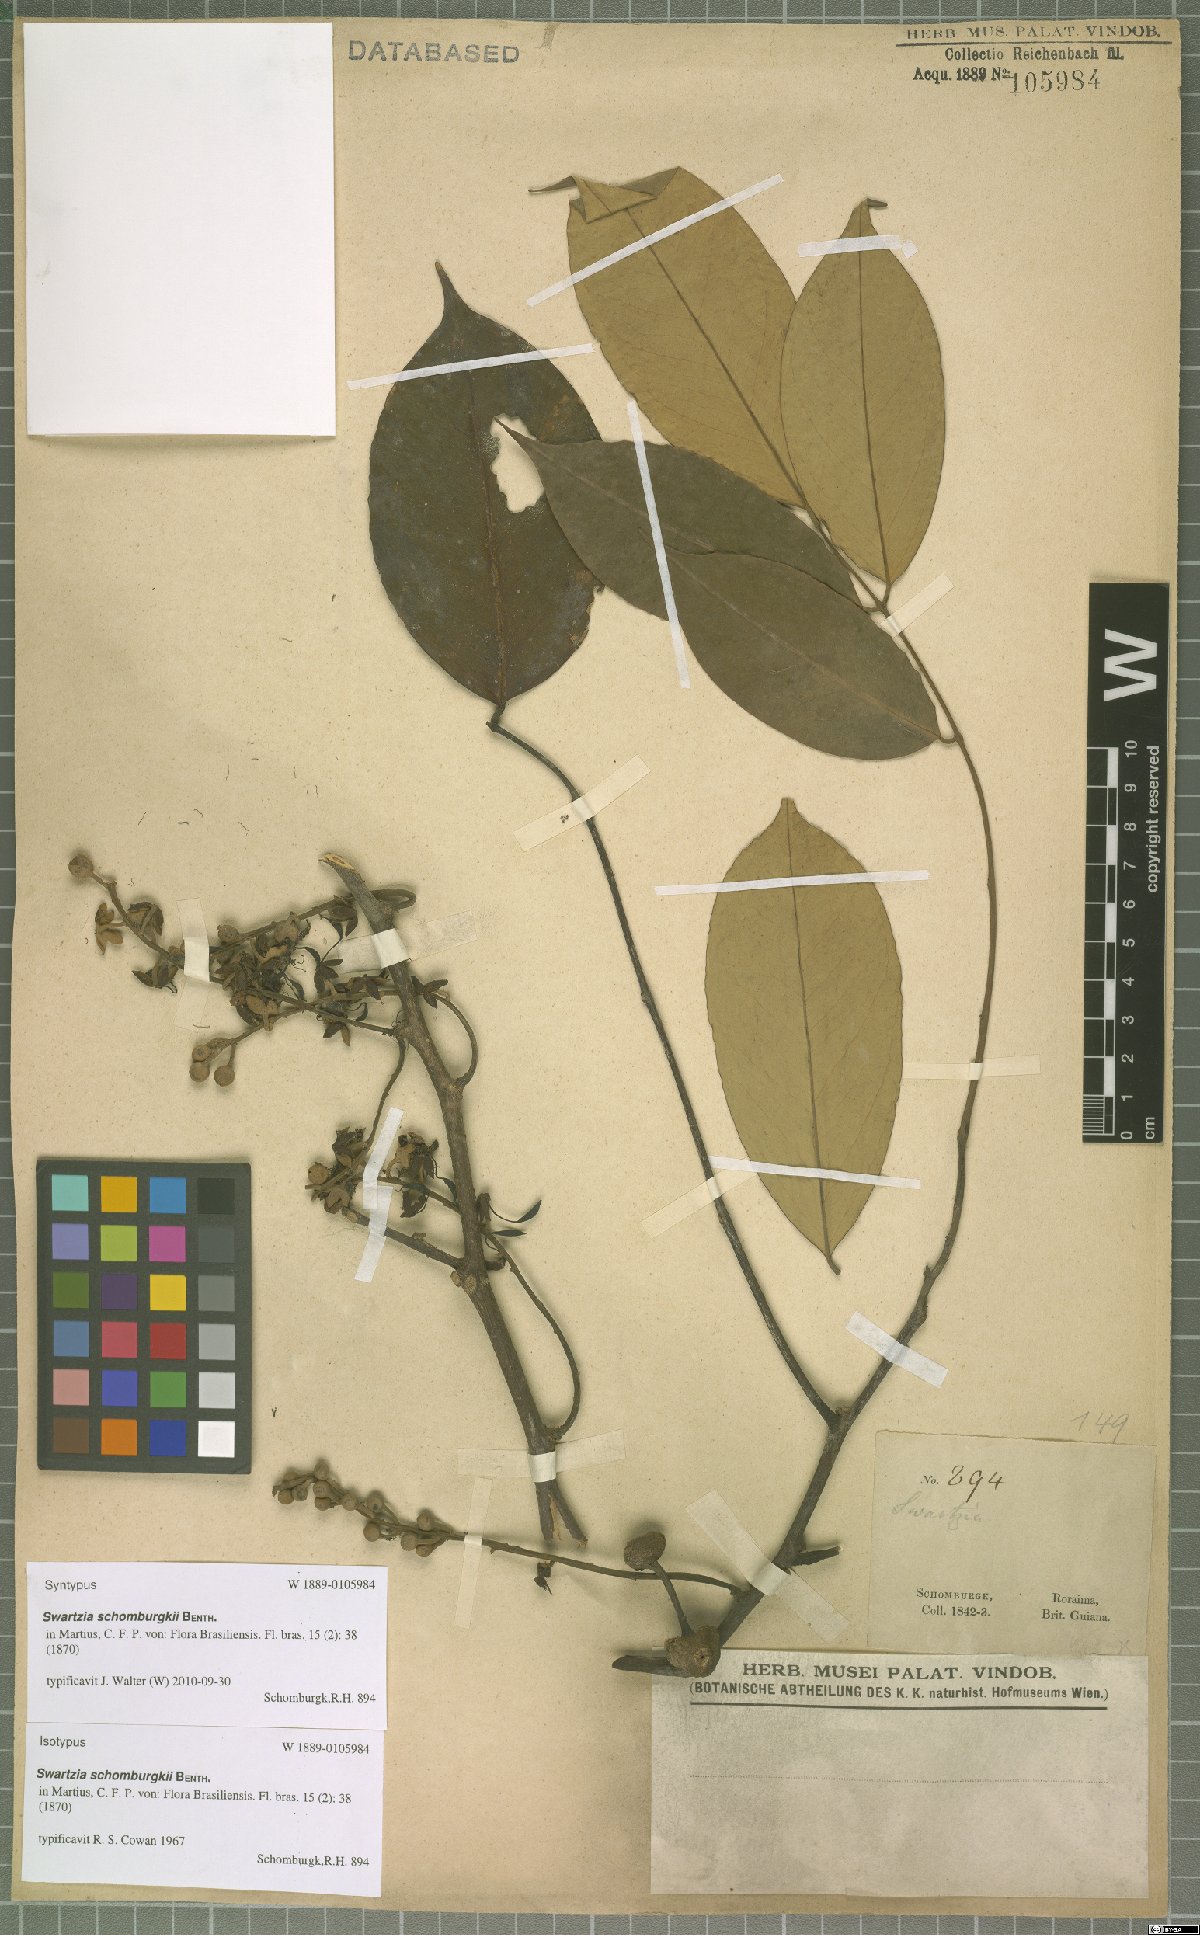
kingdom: Plantae
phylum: Tracheophyta
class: Magnoliopsida
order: Fabales
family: Fabaceae
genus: Swartzia
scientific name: Swartzia schomburgkii
